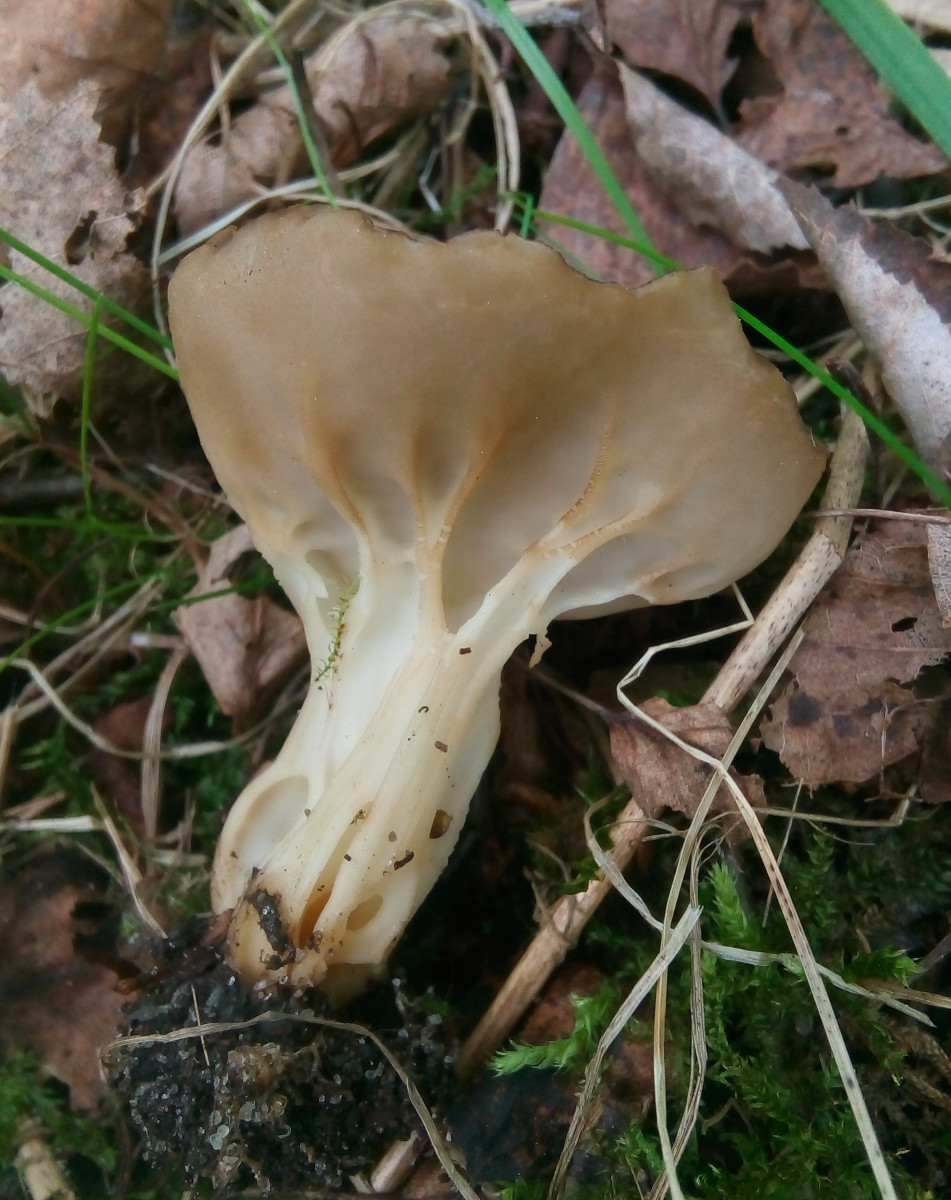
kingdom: Fungi
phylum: Ascomycota
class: Pezizomycetes
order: Pezizales
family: Helvellaceae
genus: Helvella
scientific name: Helvella acetabulum
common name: pokal-foldhat
